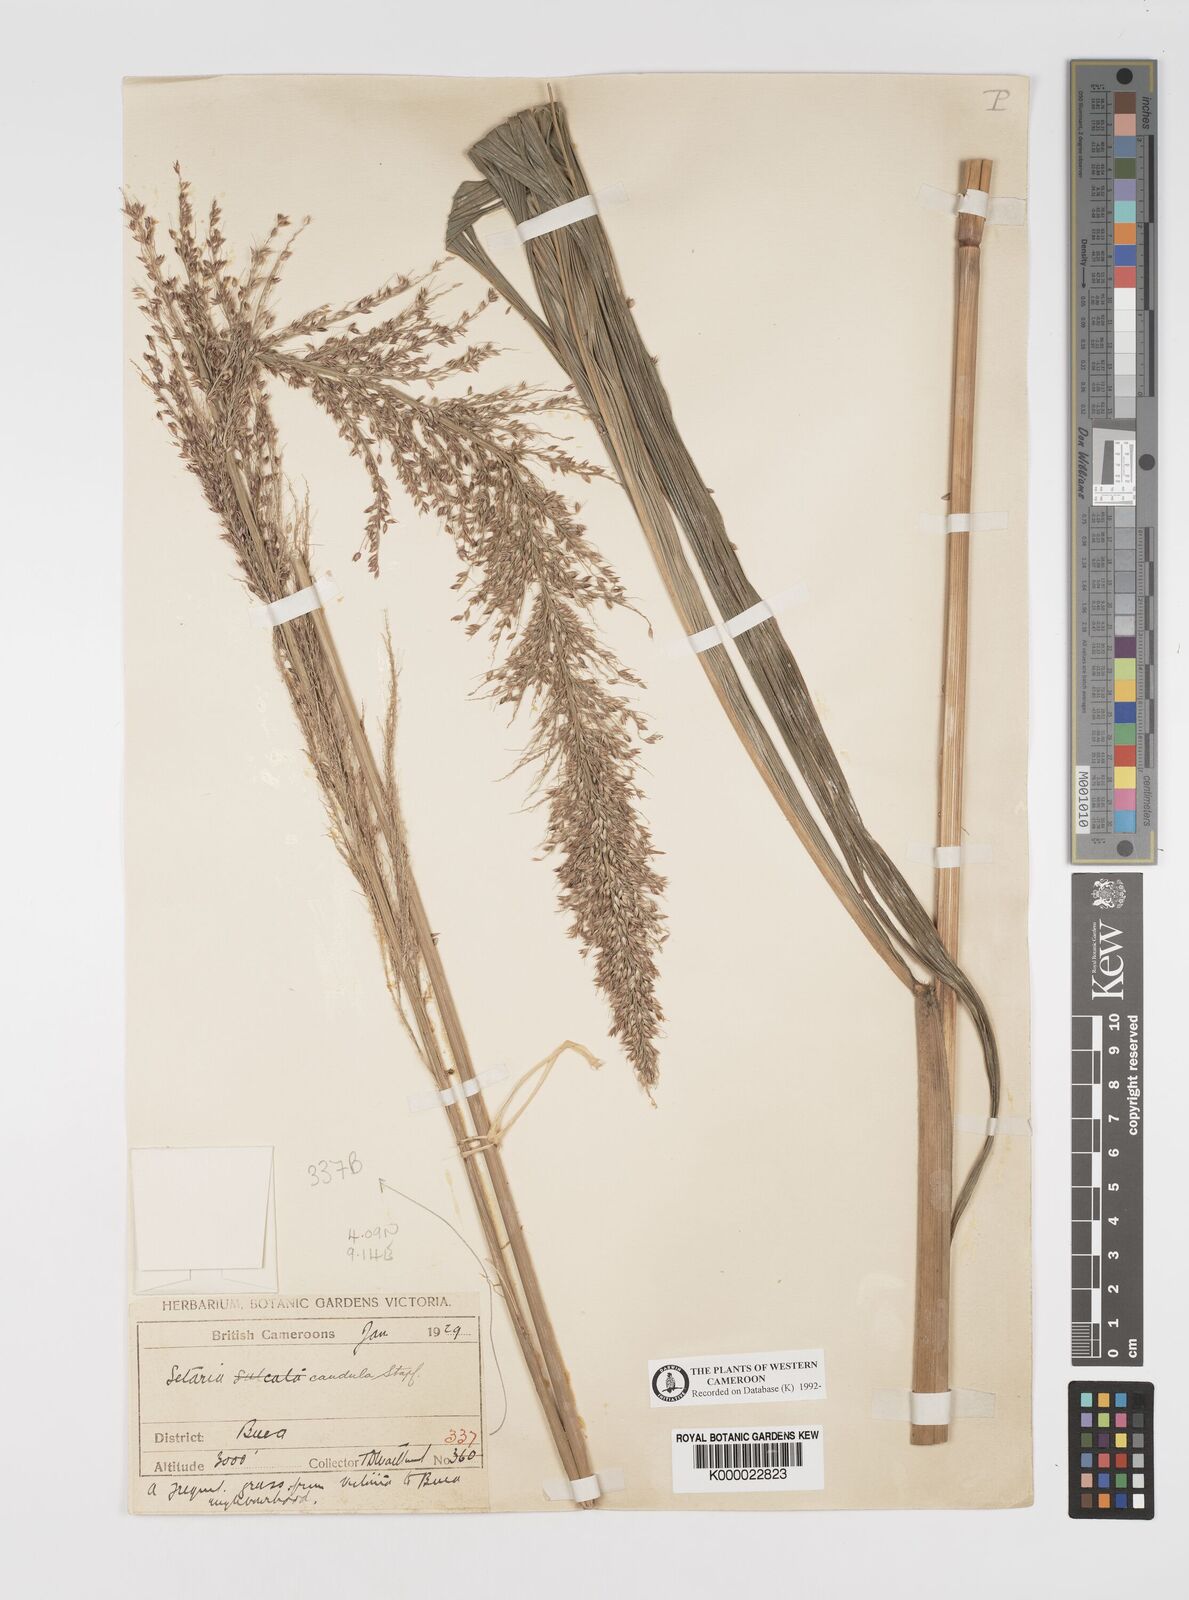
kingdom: Plantae
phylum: Tracheophyta
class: Liliopsida
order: Poales
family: Poaceae
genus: Setaria
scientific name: Setaria poiretiana
